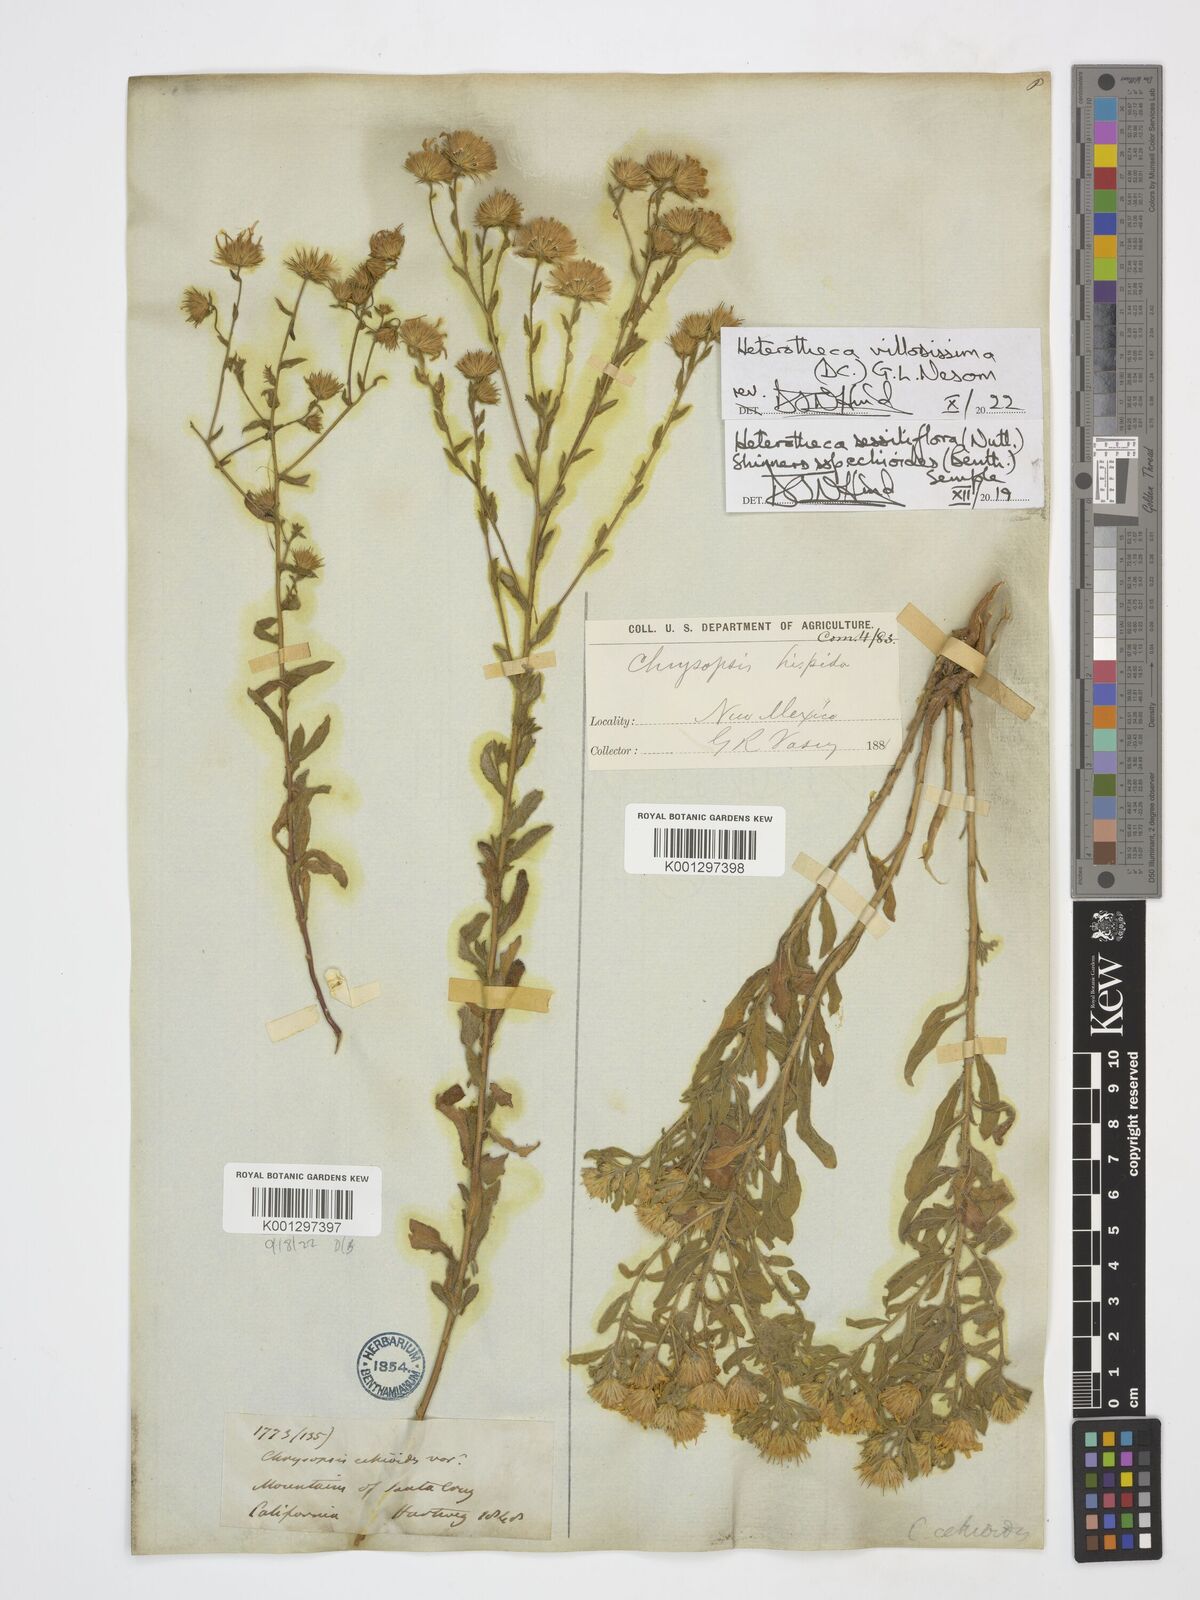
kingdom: Plantae
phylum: Tracheophyta
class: Magnoliopsida
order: Asterales
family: Asteraceae
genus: Heterotheca
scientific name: Heterotheca villosissima
